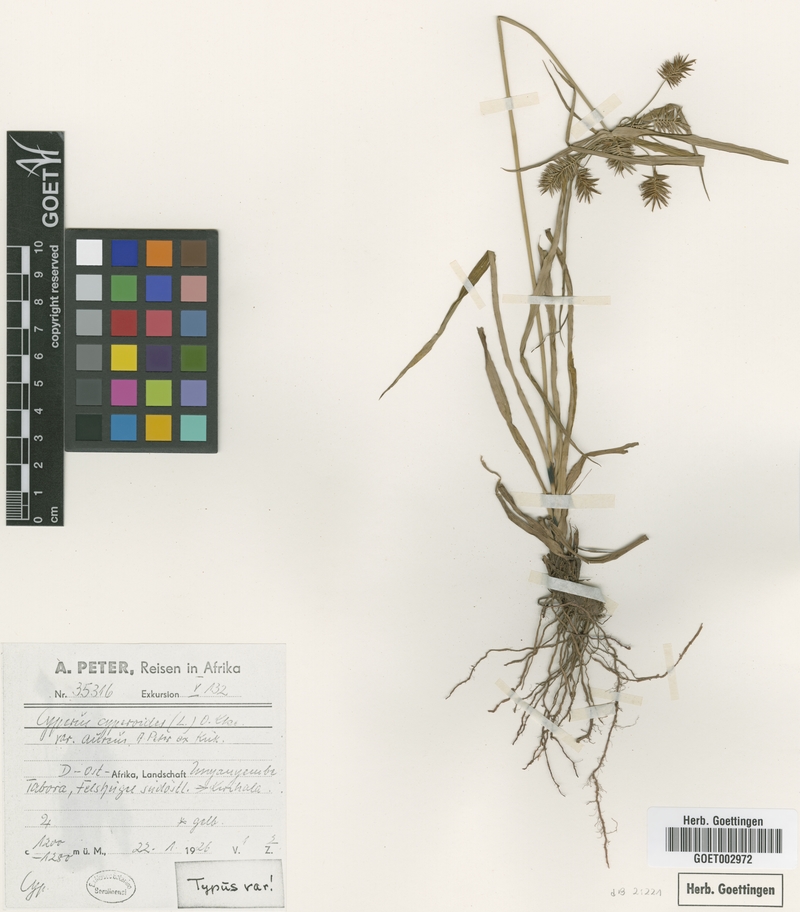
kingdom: Plantae
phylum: Tracheophyta
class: Liliopsida
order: Poales
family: Cyperaceae
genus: Cyperus
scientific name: Cyperus cyperoides
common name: Pacific island flat sedge
